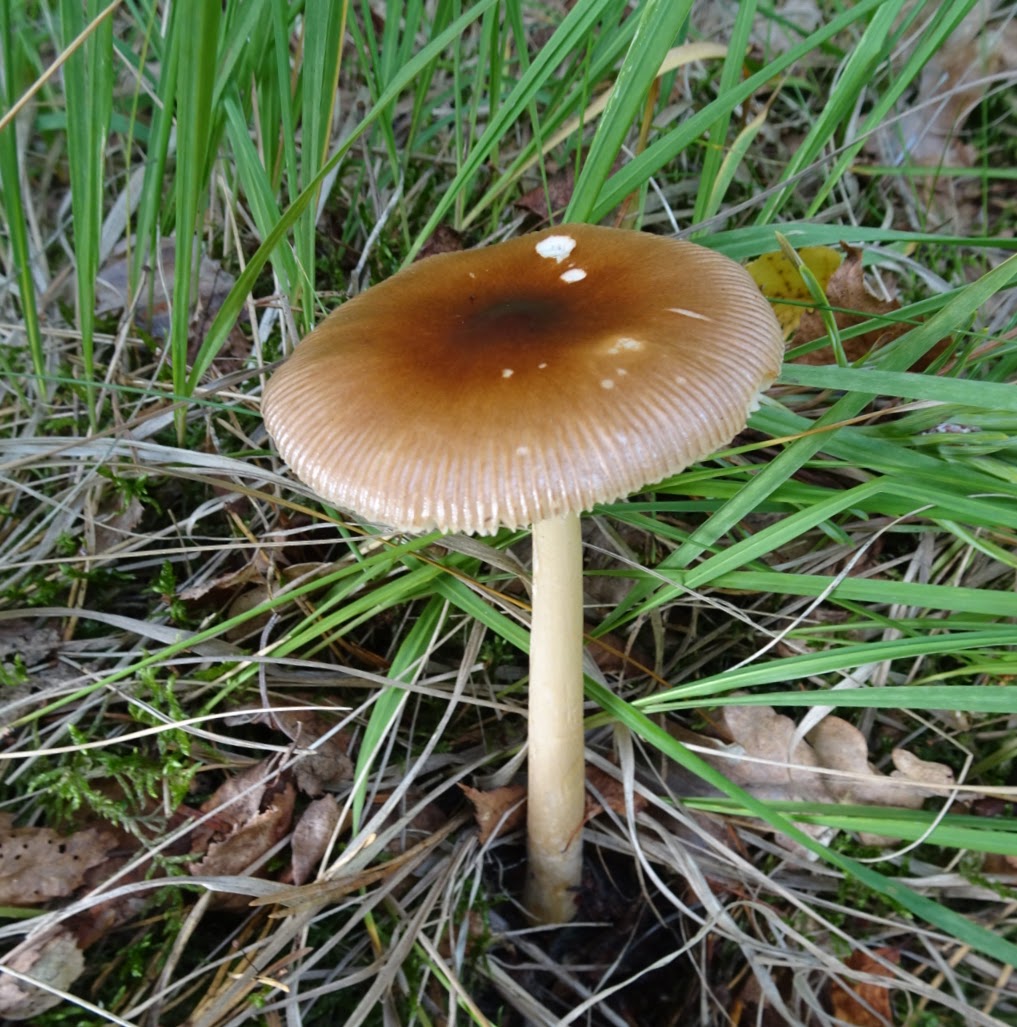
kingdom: Fungi
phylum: Basidiomycota
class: Agaricomycetes
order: Agaricales
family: Amanitaceae
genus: Amanita
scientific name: Amanita fulva
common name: brun kam-fluesvamp
